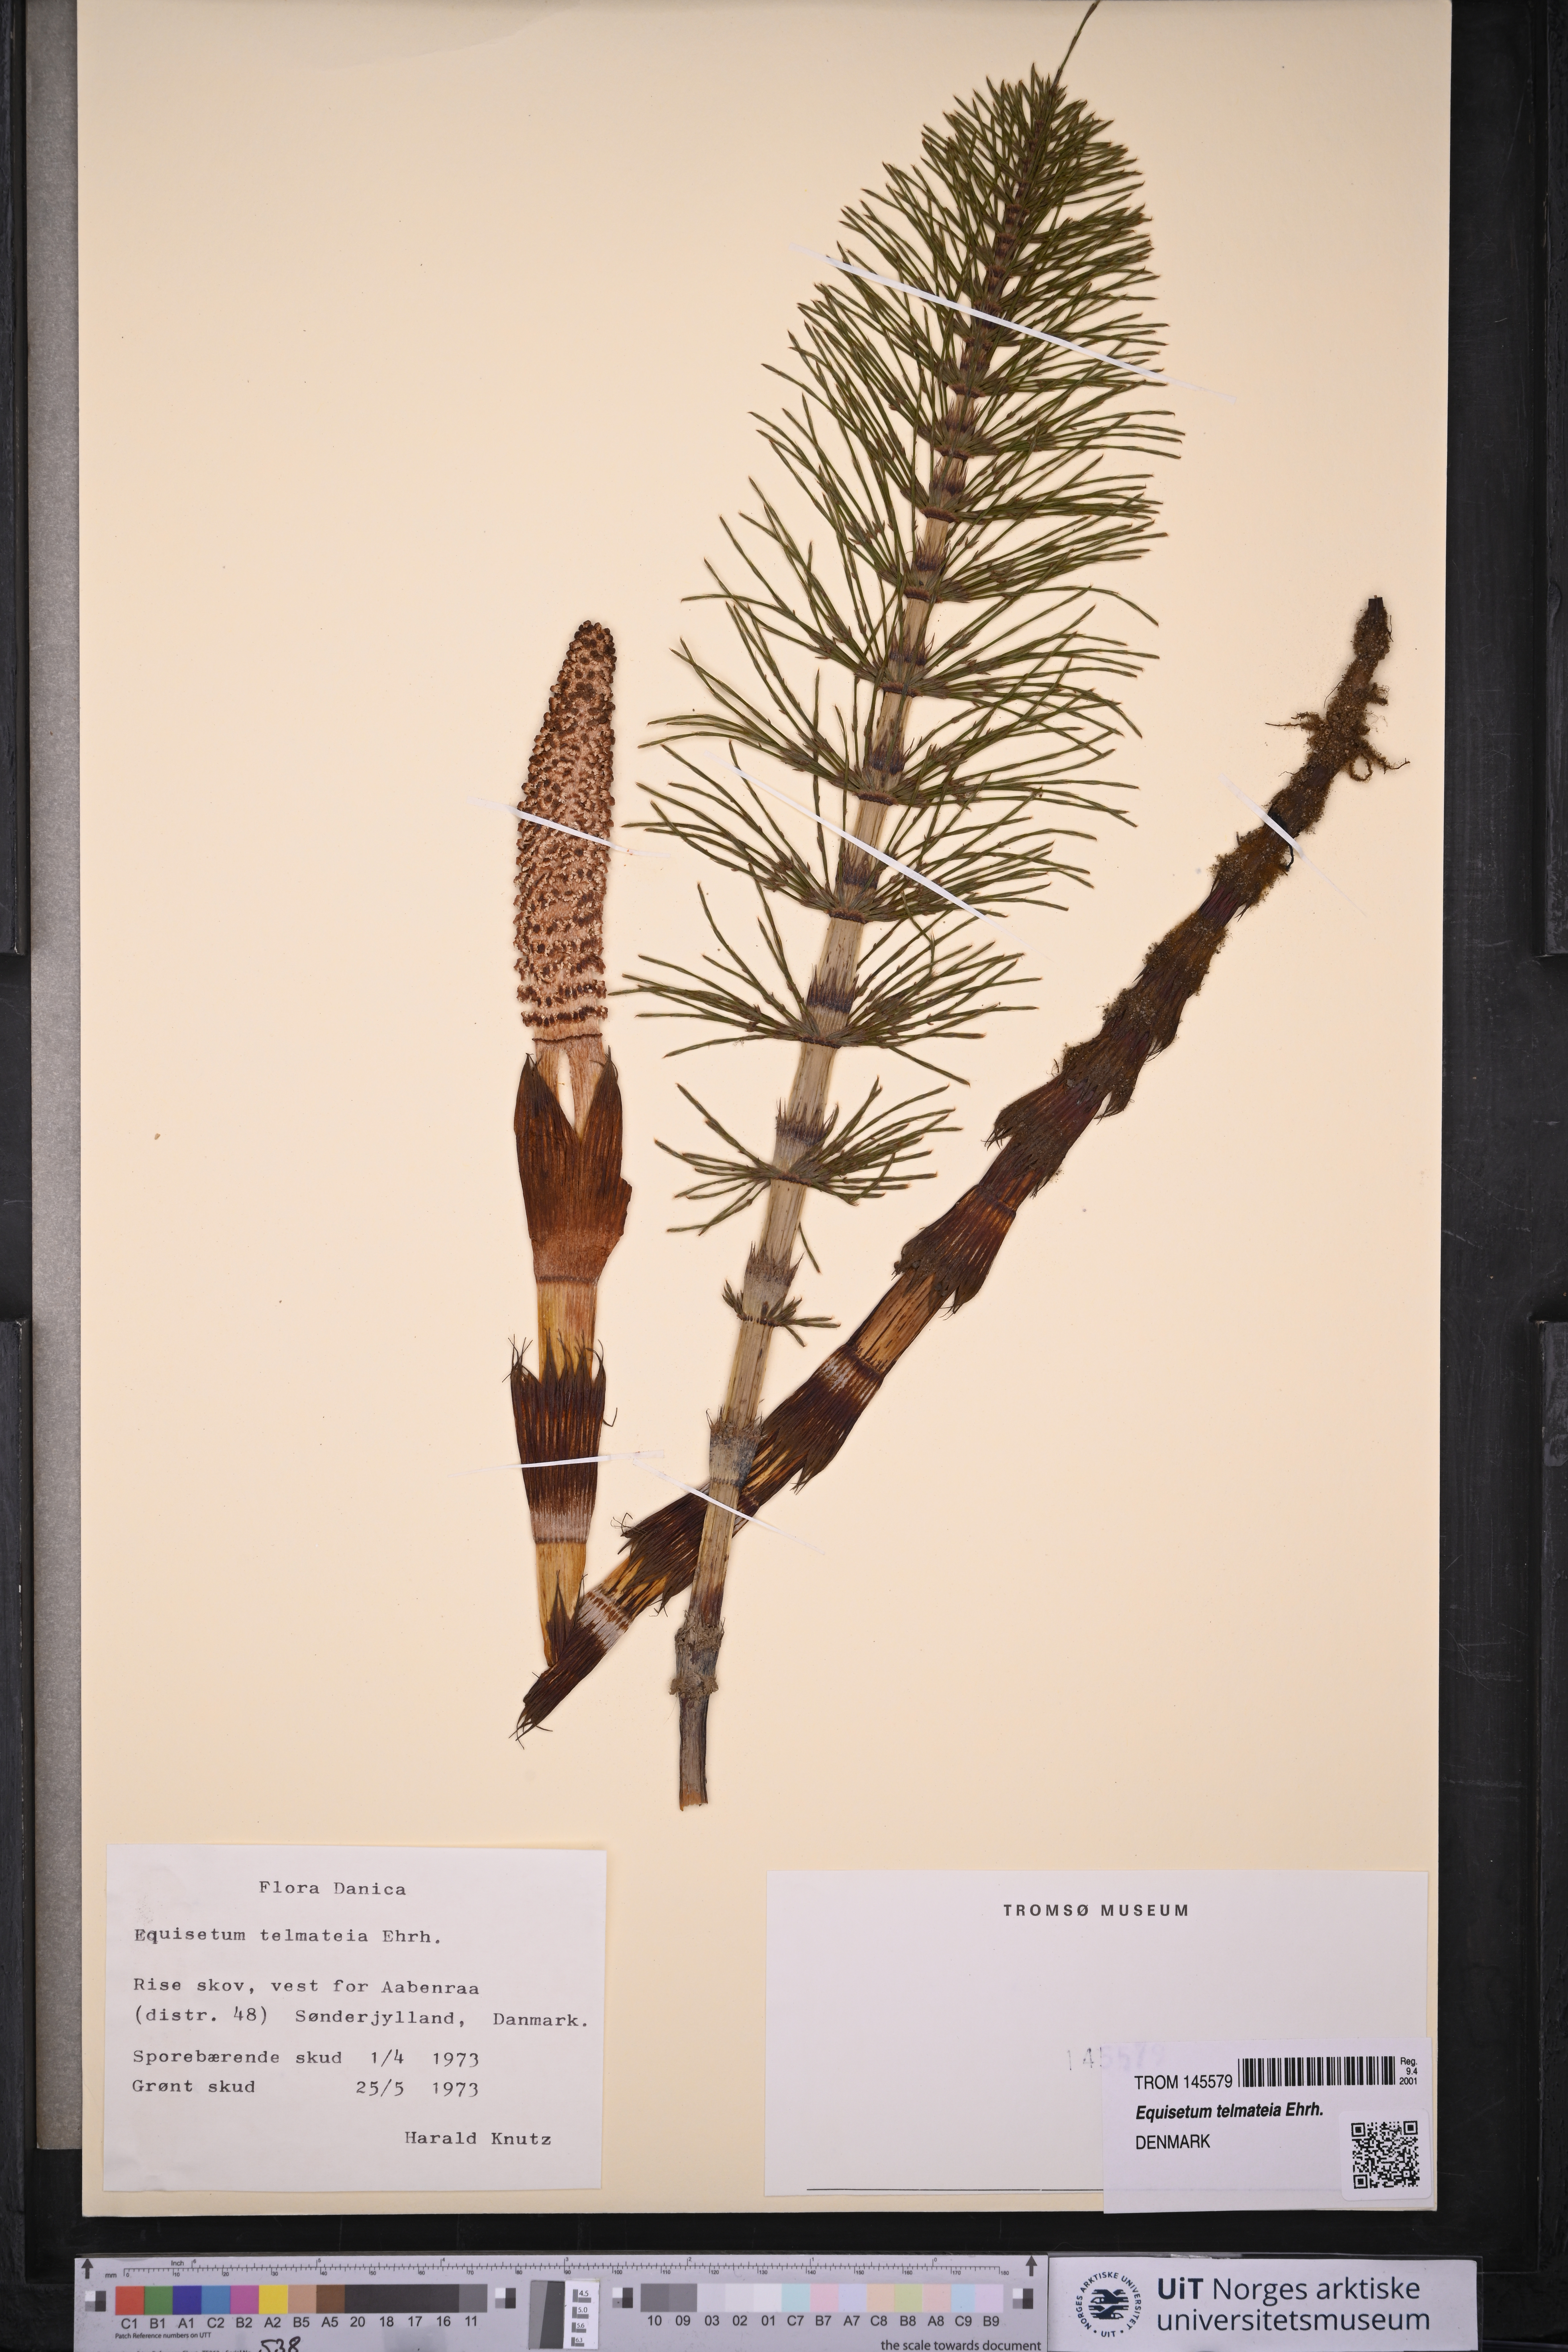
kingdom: Plantae
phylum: Tracheophyta
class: Polypodiopsida
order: Equisetales
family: Equisetaceae
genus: Equisetum
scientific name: Equisetum telmateia
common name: Great horsetail
